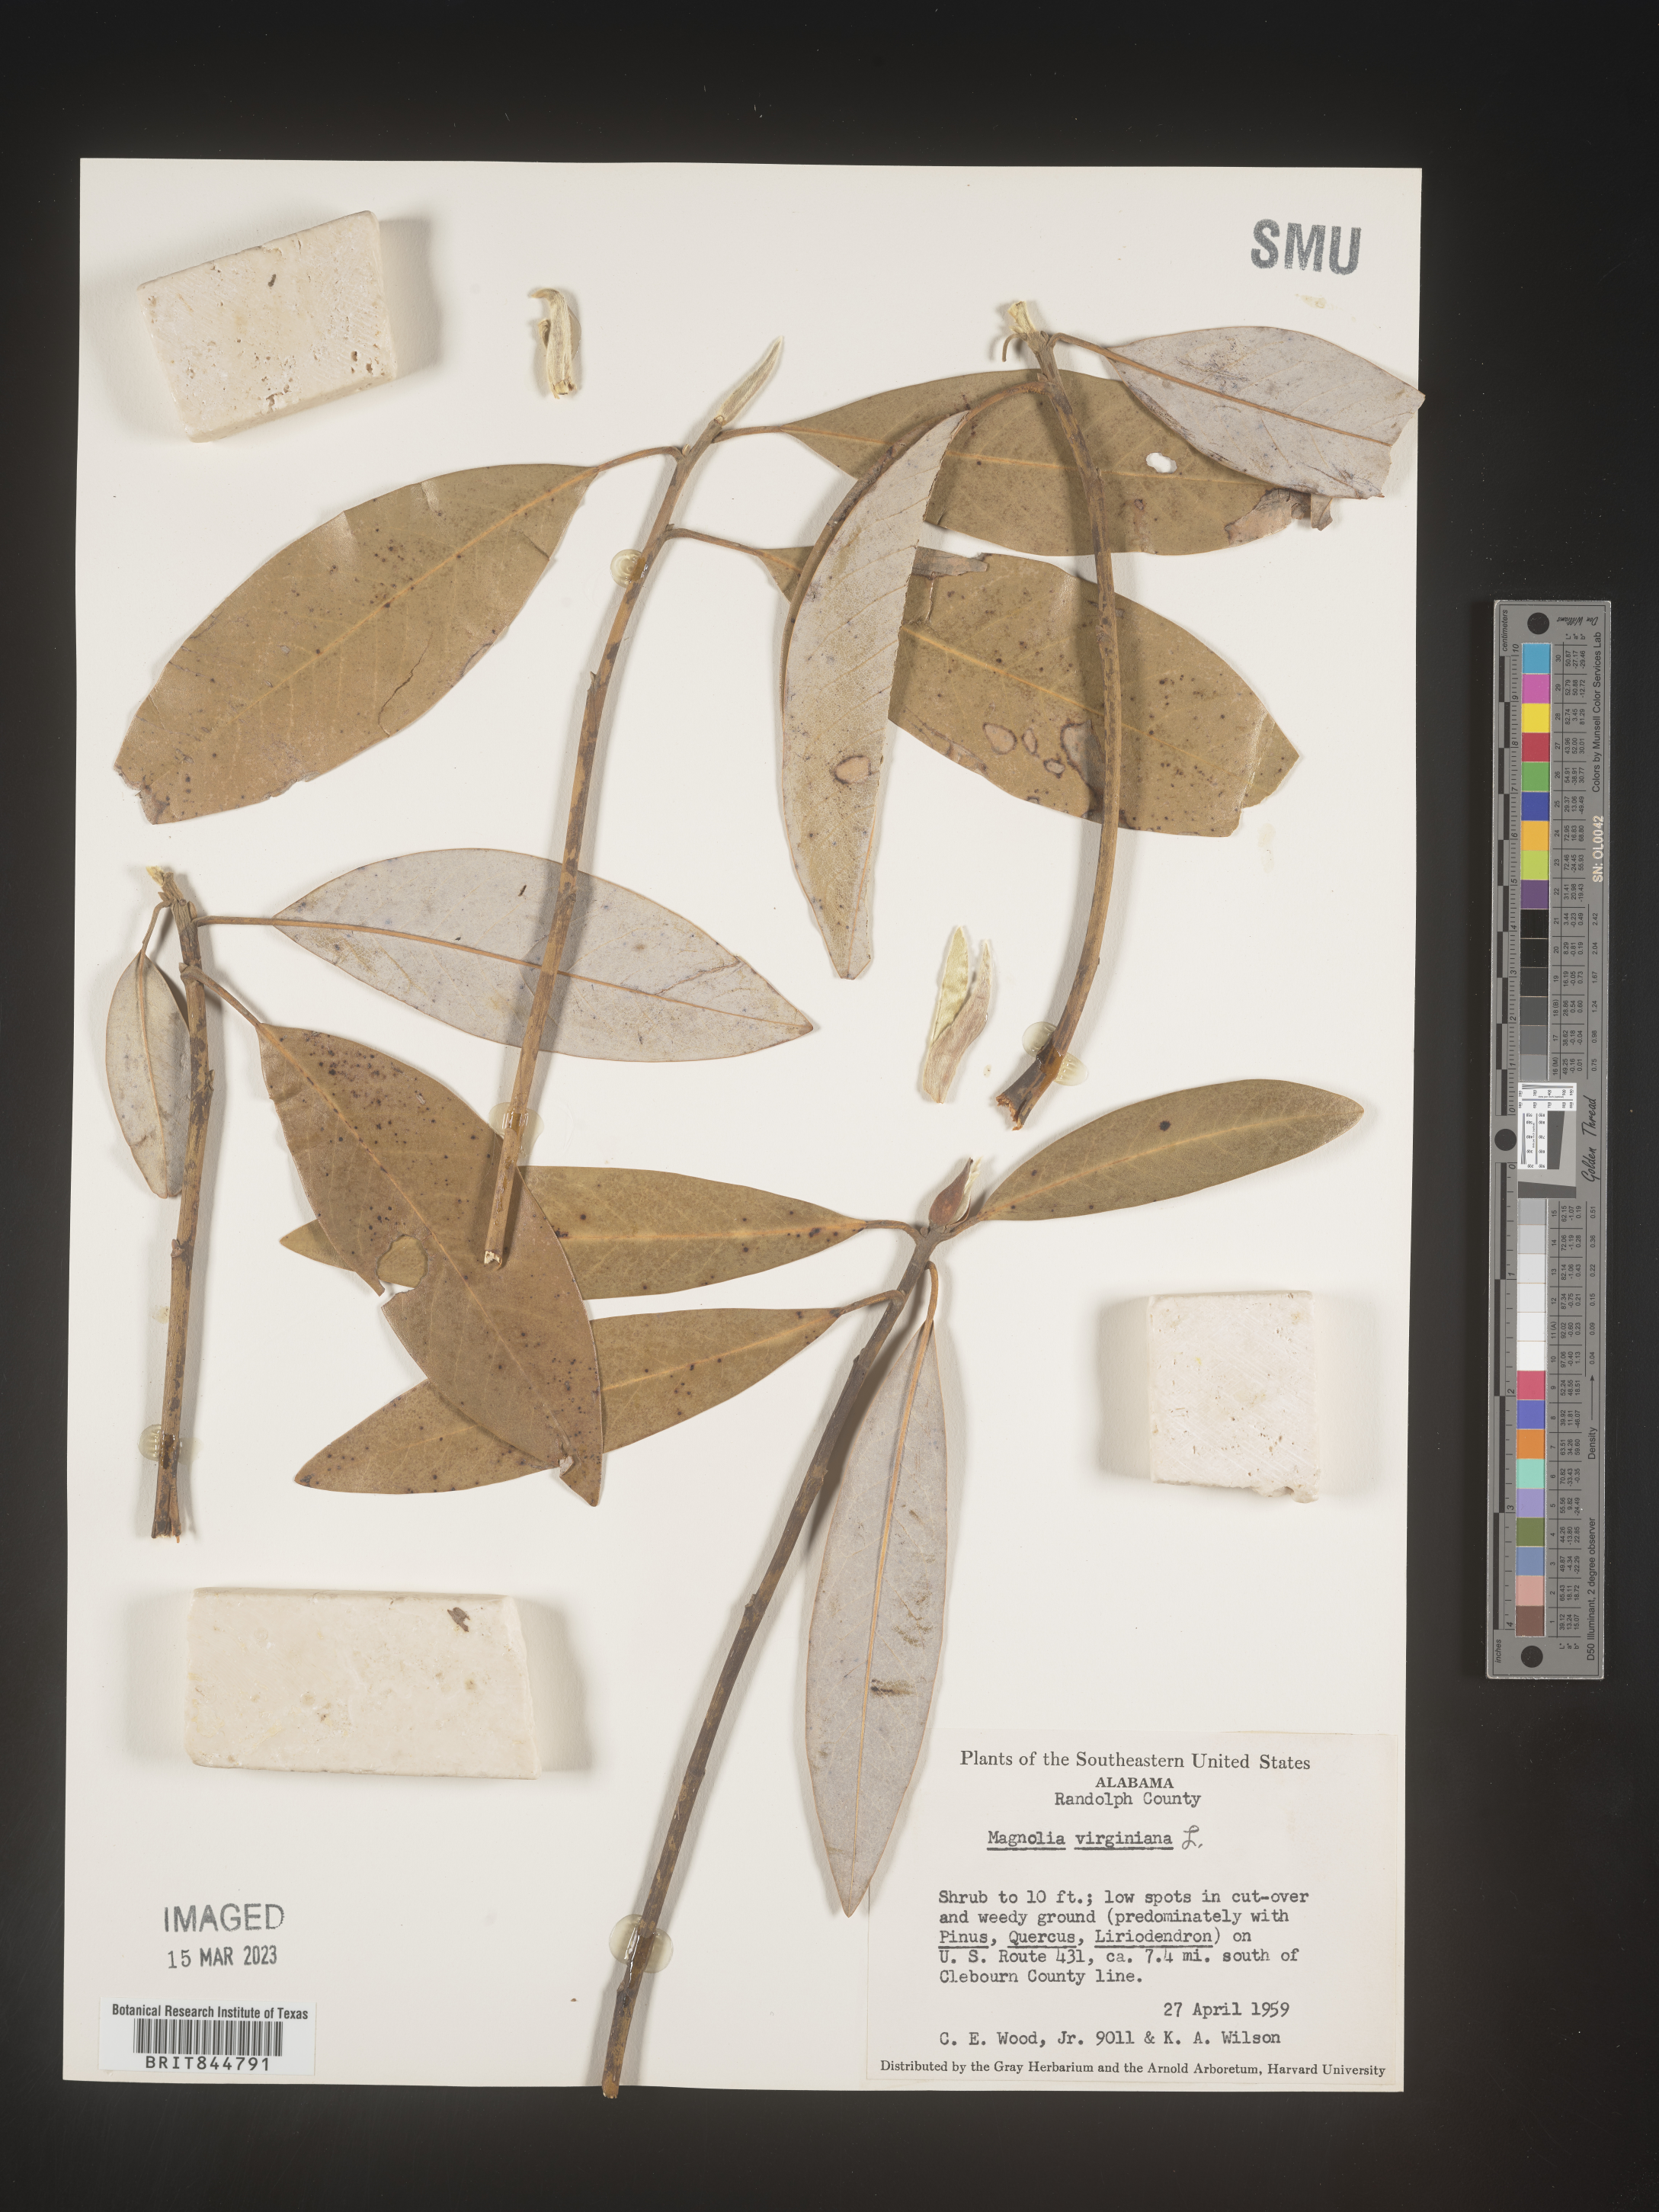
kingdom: Plantae
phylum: Tracheophyta
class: Magnoliopsida
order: Magnoliales
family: Magnoliaceae
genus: Magnolia
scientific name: Magnolia virginiana
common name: Swamp bay
